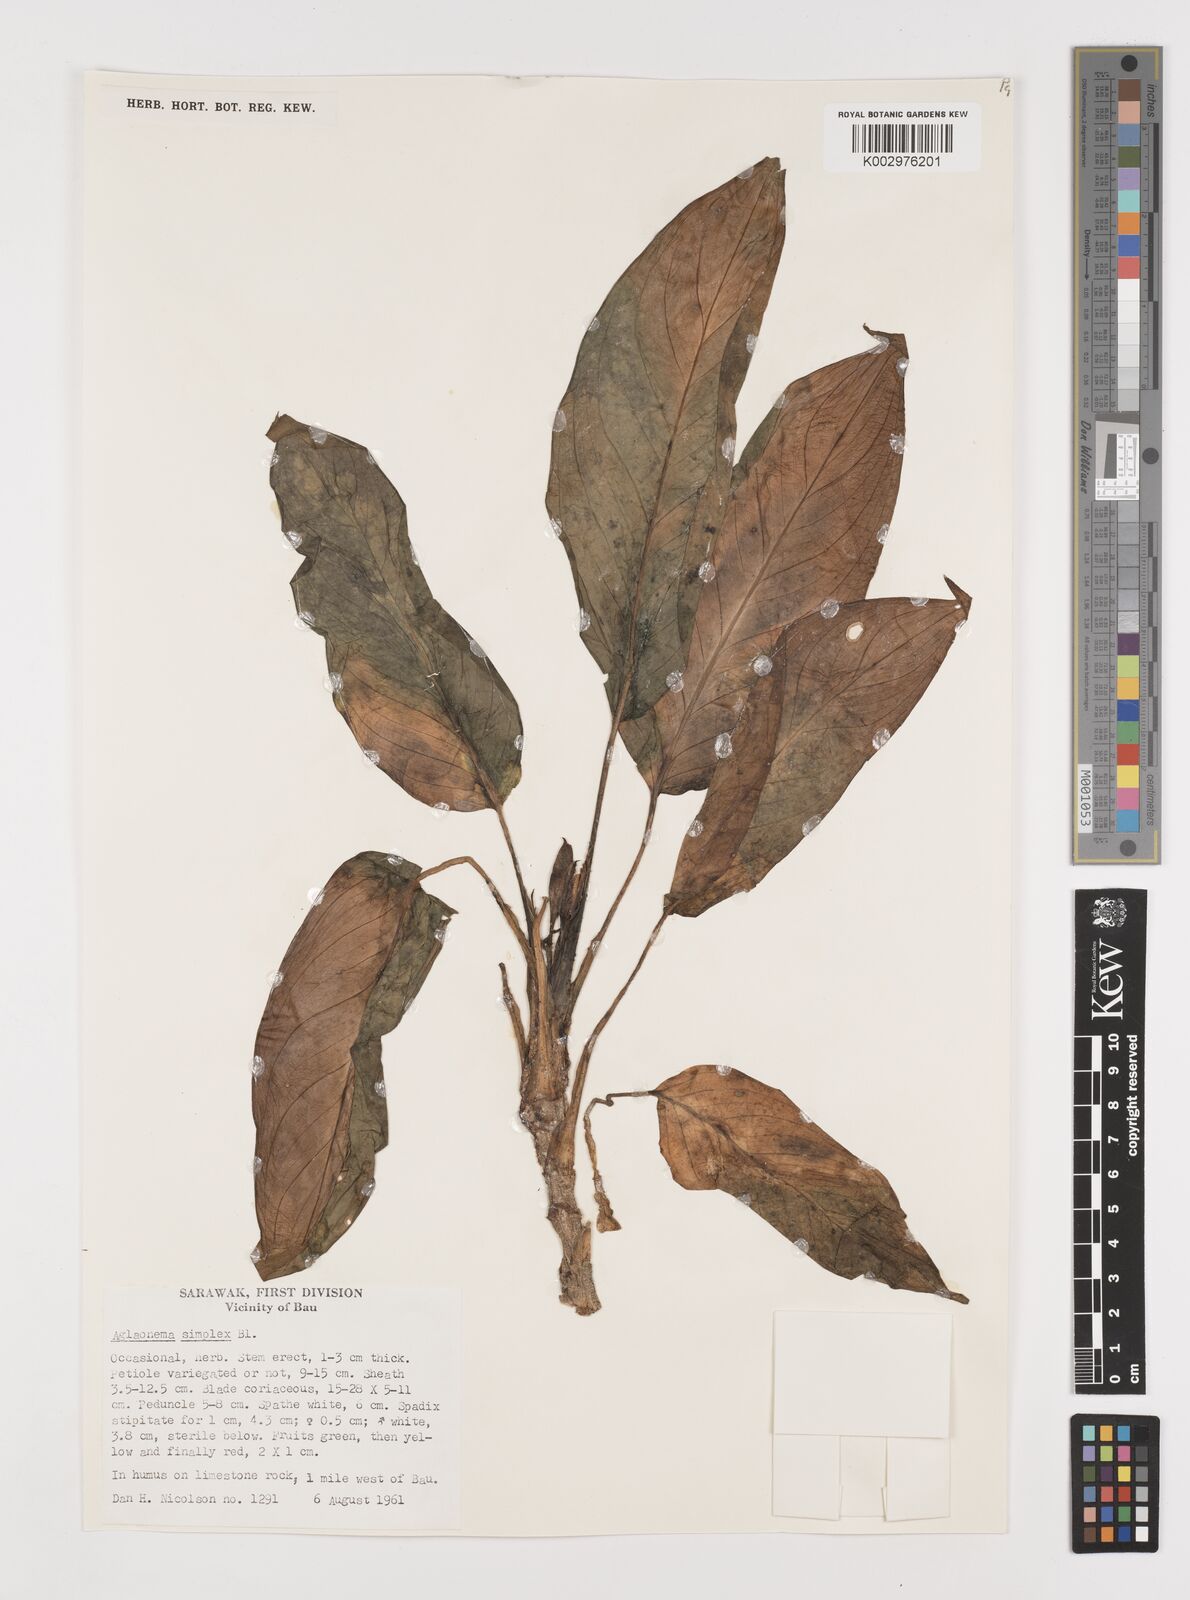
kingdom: Plantae
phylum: Tracheophyta
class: Liliopsida
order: Alismatales
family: Araceae
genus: Aglaonema
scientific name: Aglaonema simplex
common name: Malayan-sword
